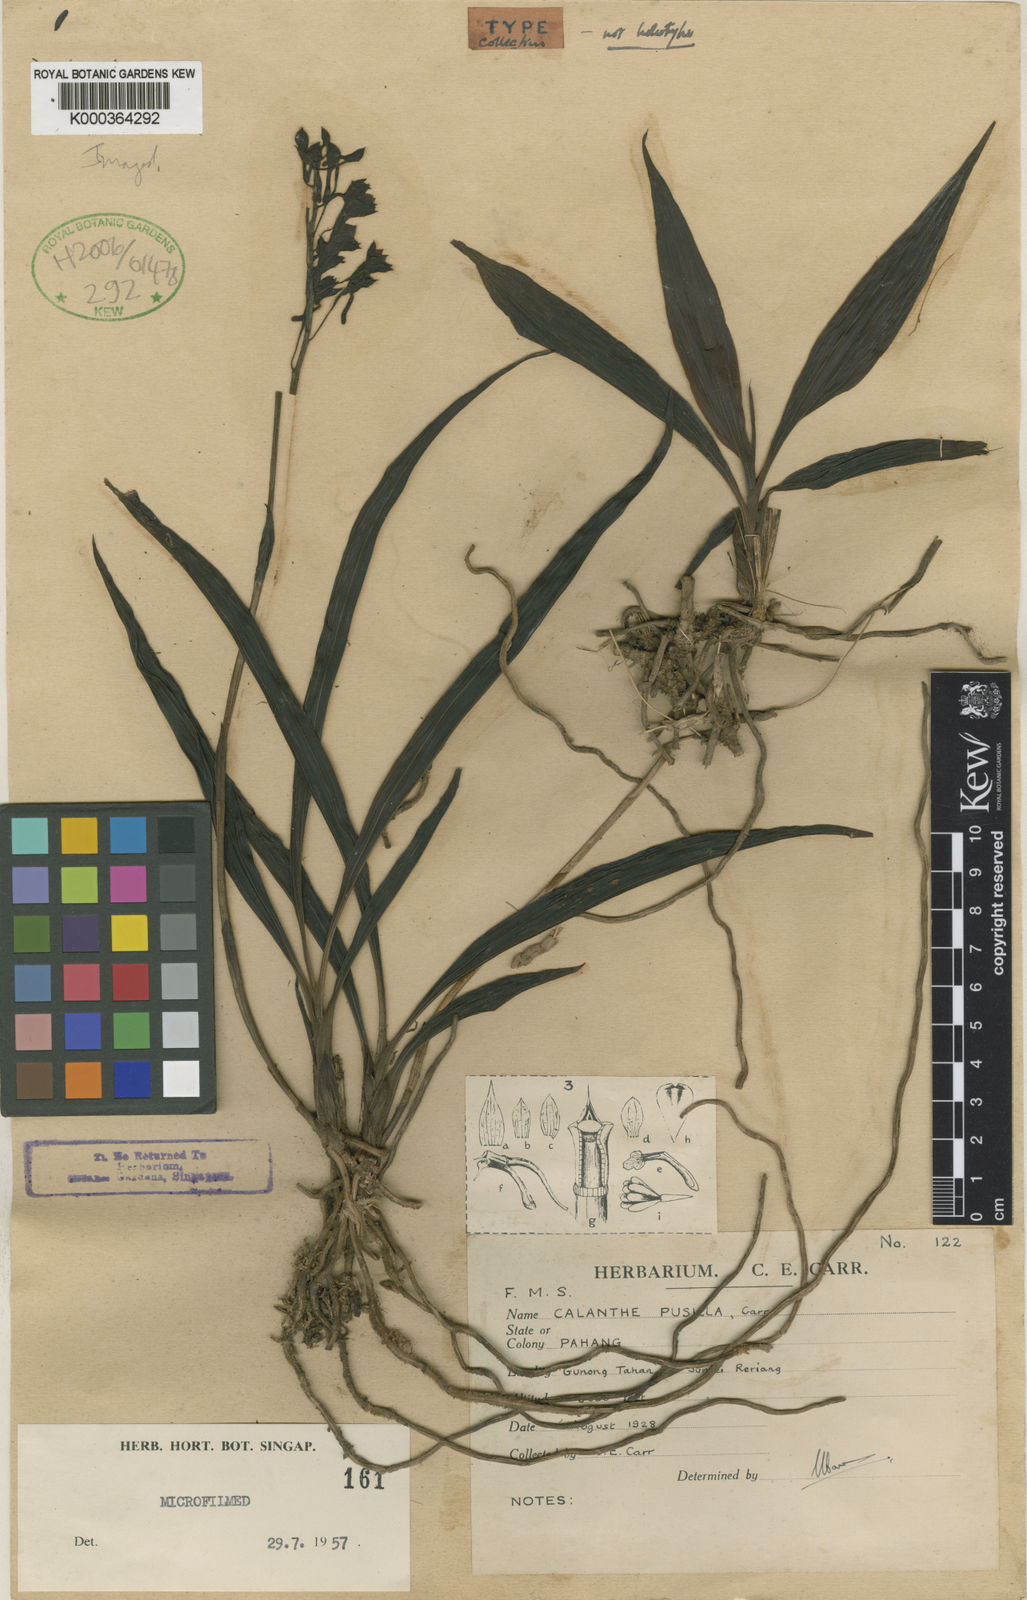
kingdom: Plantae
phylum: Tracheophyta
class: Liliopsida
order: Asparagales
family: Orchidaceae
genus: Calanthe
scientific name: Calanthe carrii
